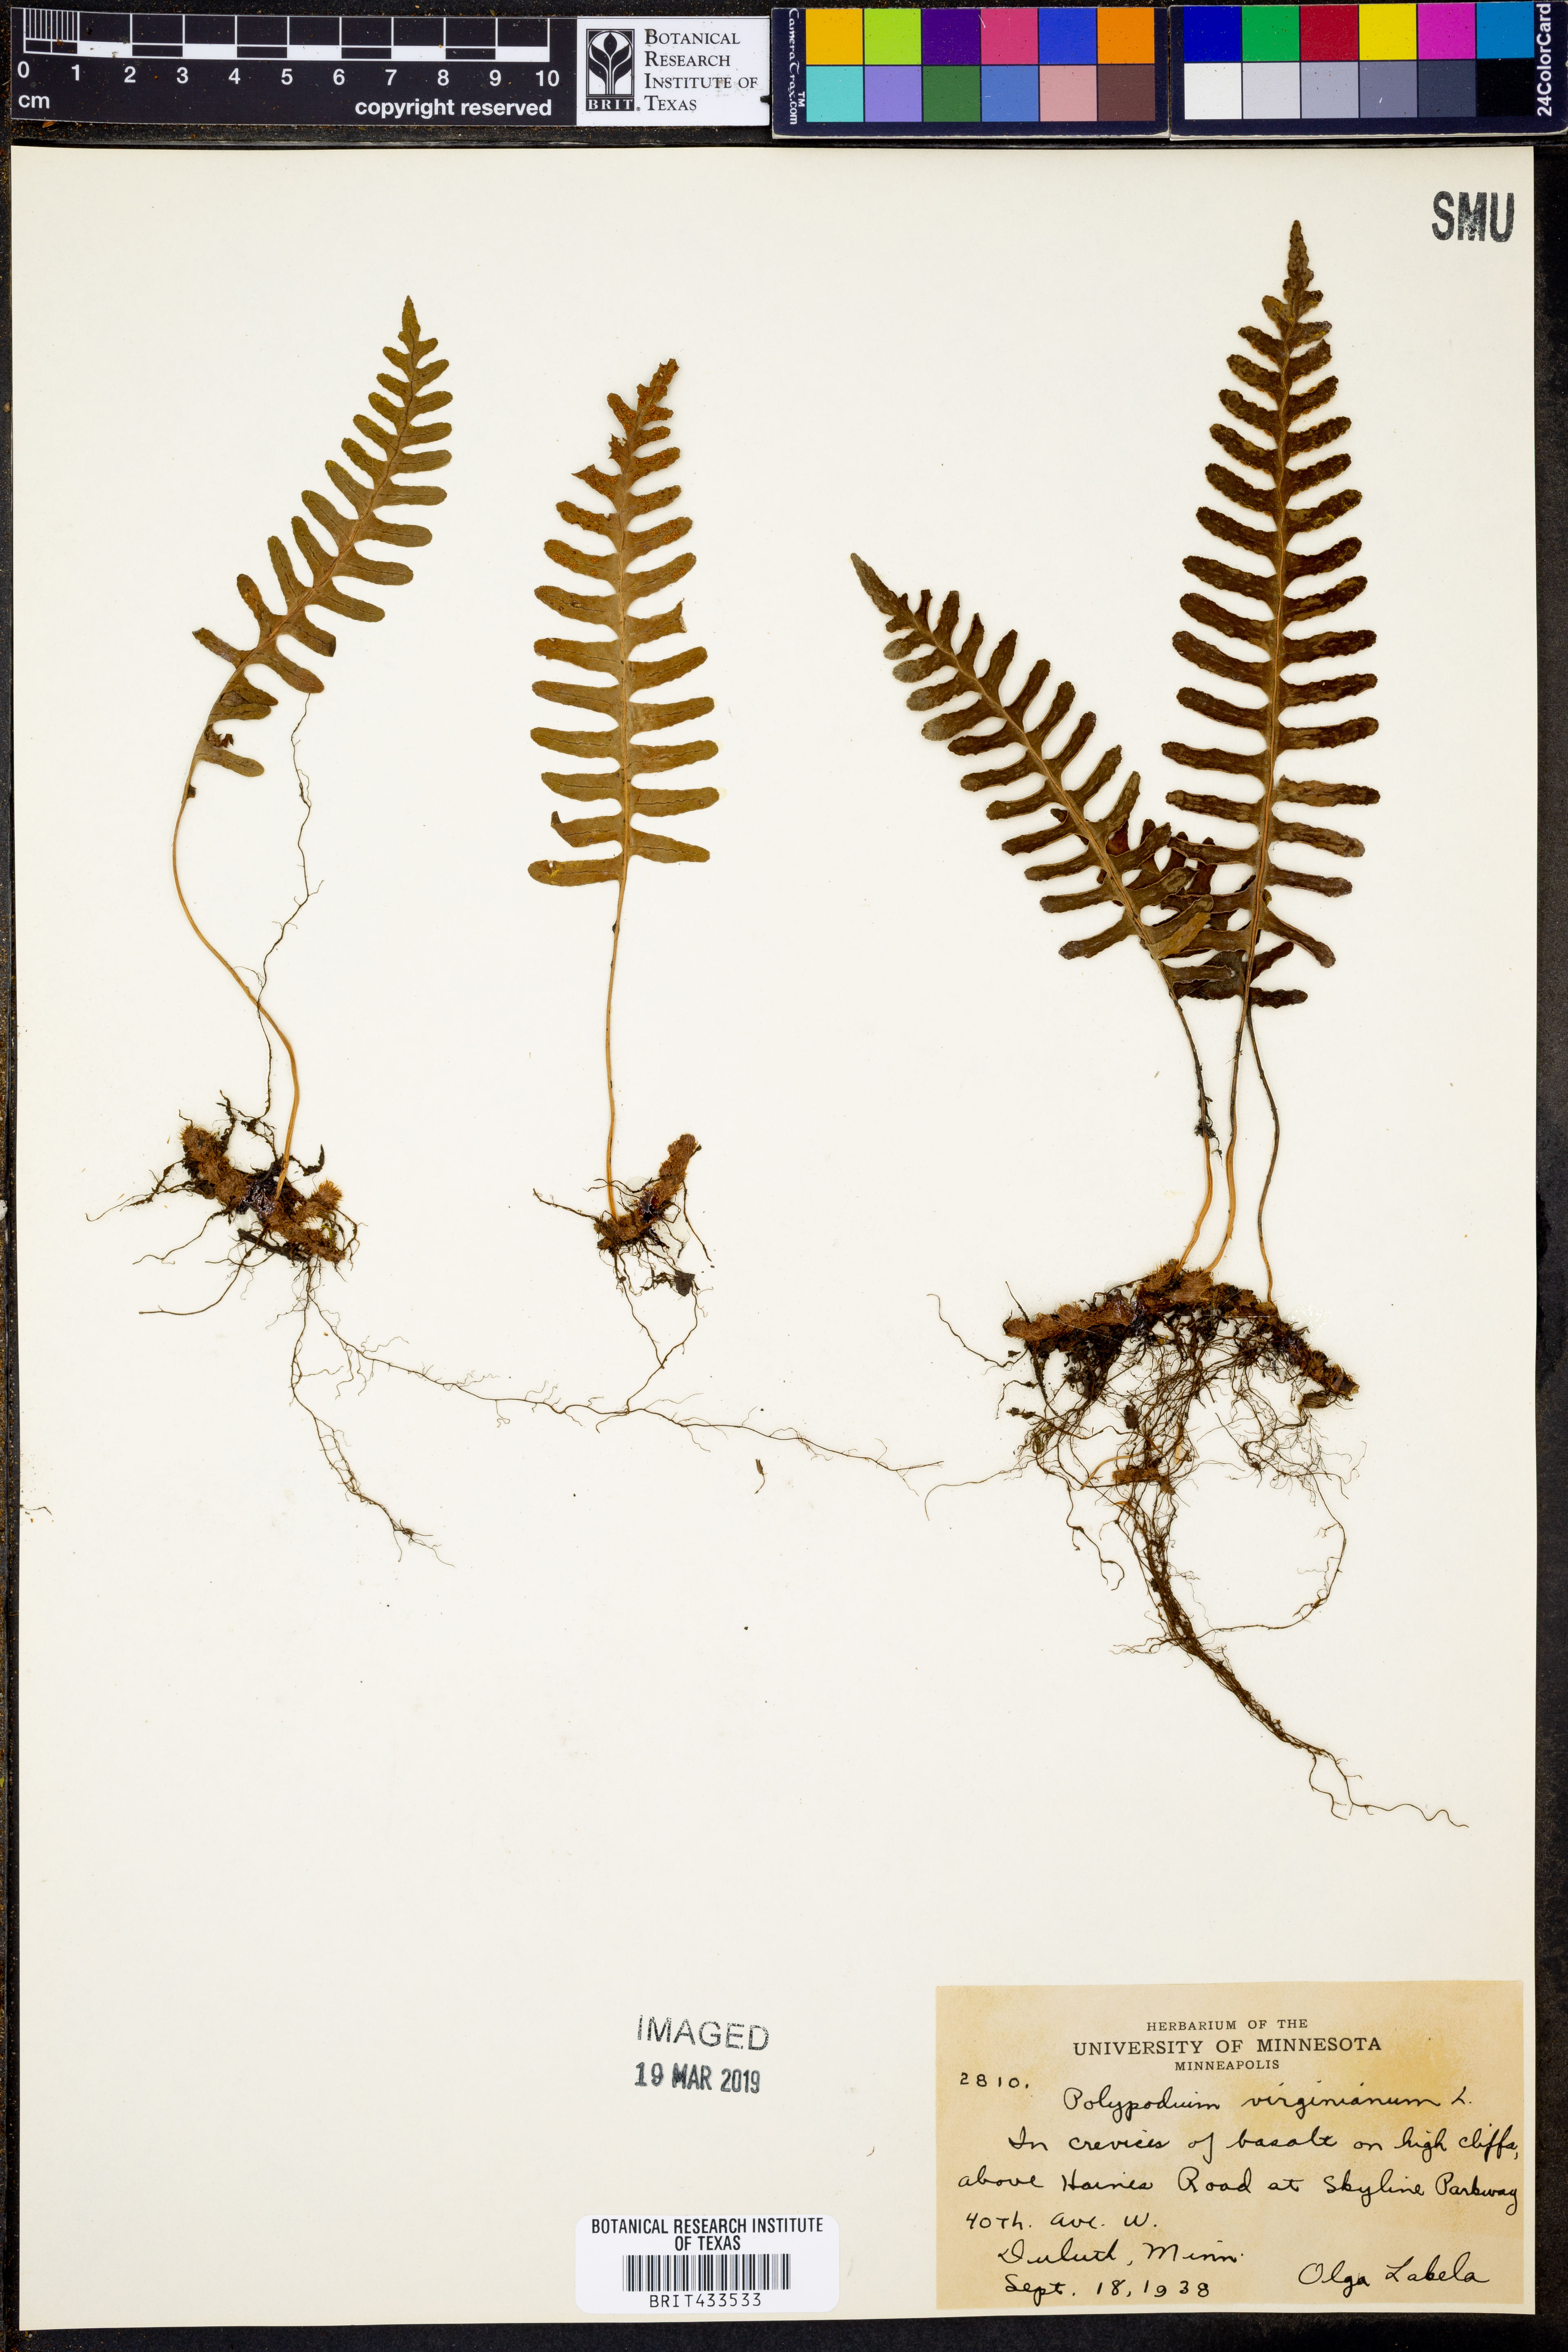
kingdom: Plantae
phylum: Tracheophyta
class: Polypodiopsida
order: Polypodiales
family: Polypodiaceae
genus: Polypodium
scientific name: Polypodium virginianum
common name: American wall fern
